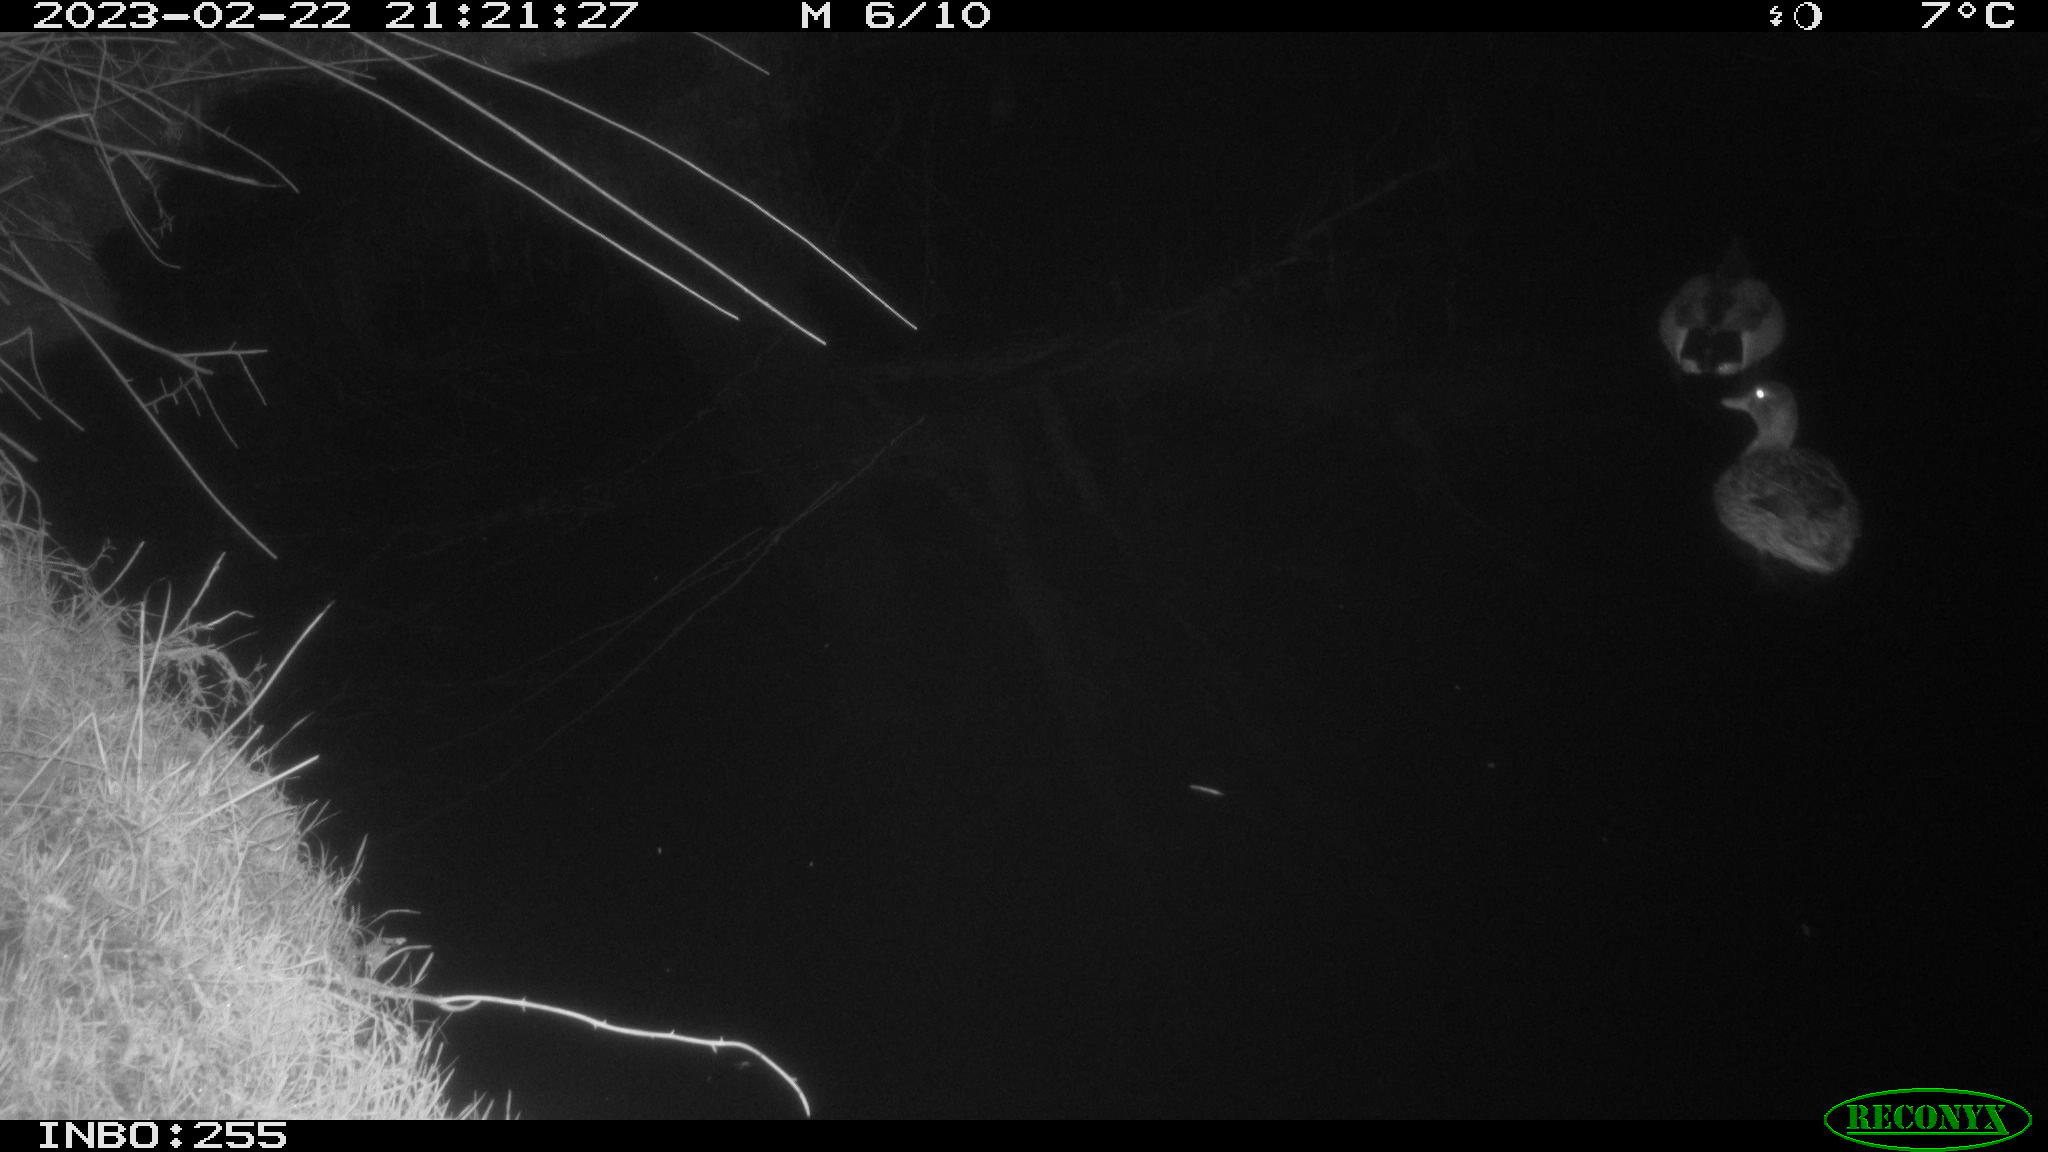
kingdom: Animalia
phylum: Chordata
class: Aves
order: Anseriformes
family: Anatidae
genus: Anas
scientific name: Anas
